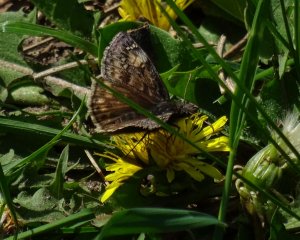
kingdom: Animalia
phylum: Arthropoda
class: Insecta
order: Lepidoptera
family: Hesperiidae
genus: Gesta
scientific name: Gesta
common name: Juvenal's Duskywing
